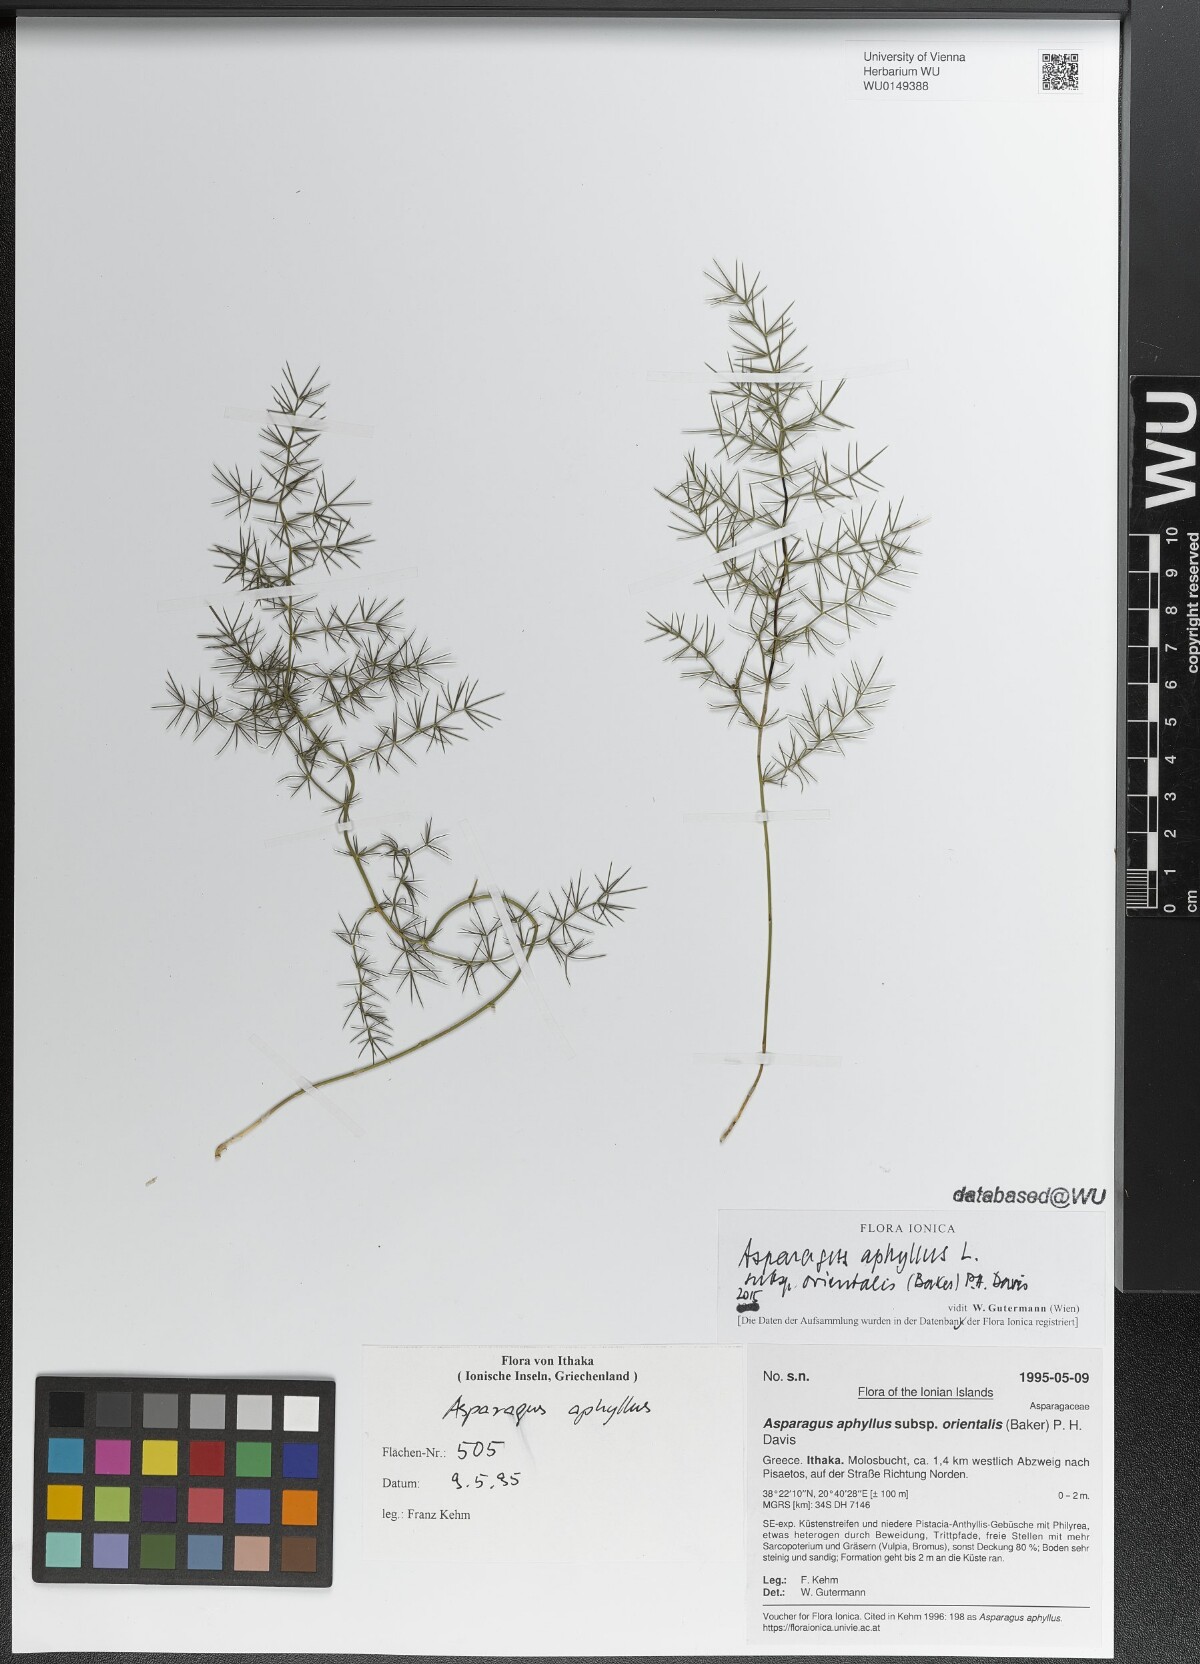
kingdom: Plantae
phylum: Tracheophyta
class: Liliopsida
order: Asparagales
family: Asparagaceae
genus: Asparagus
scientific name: Asparagus aphyllus
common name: Mediterranean asparagus
